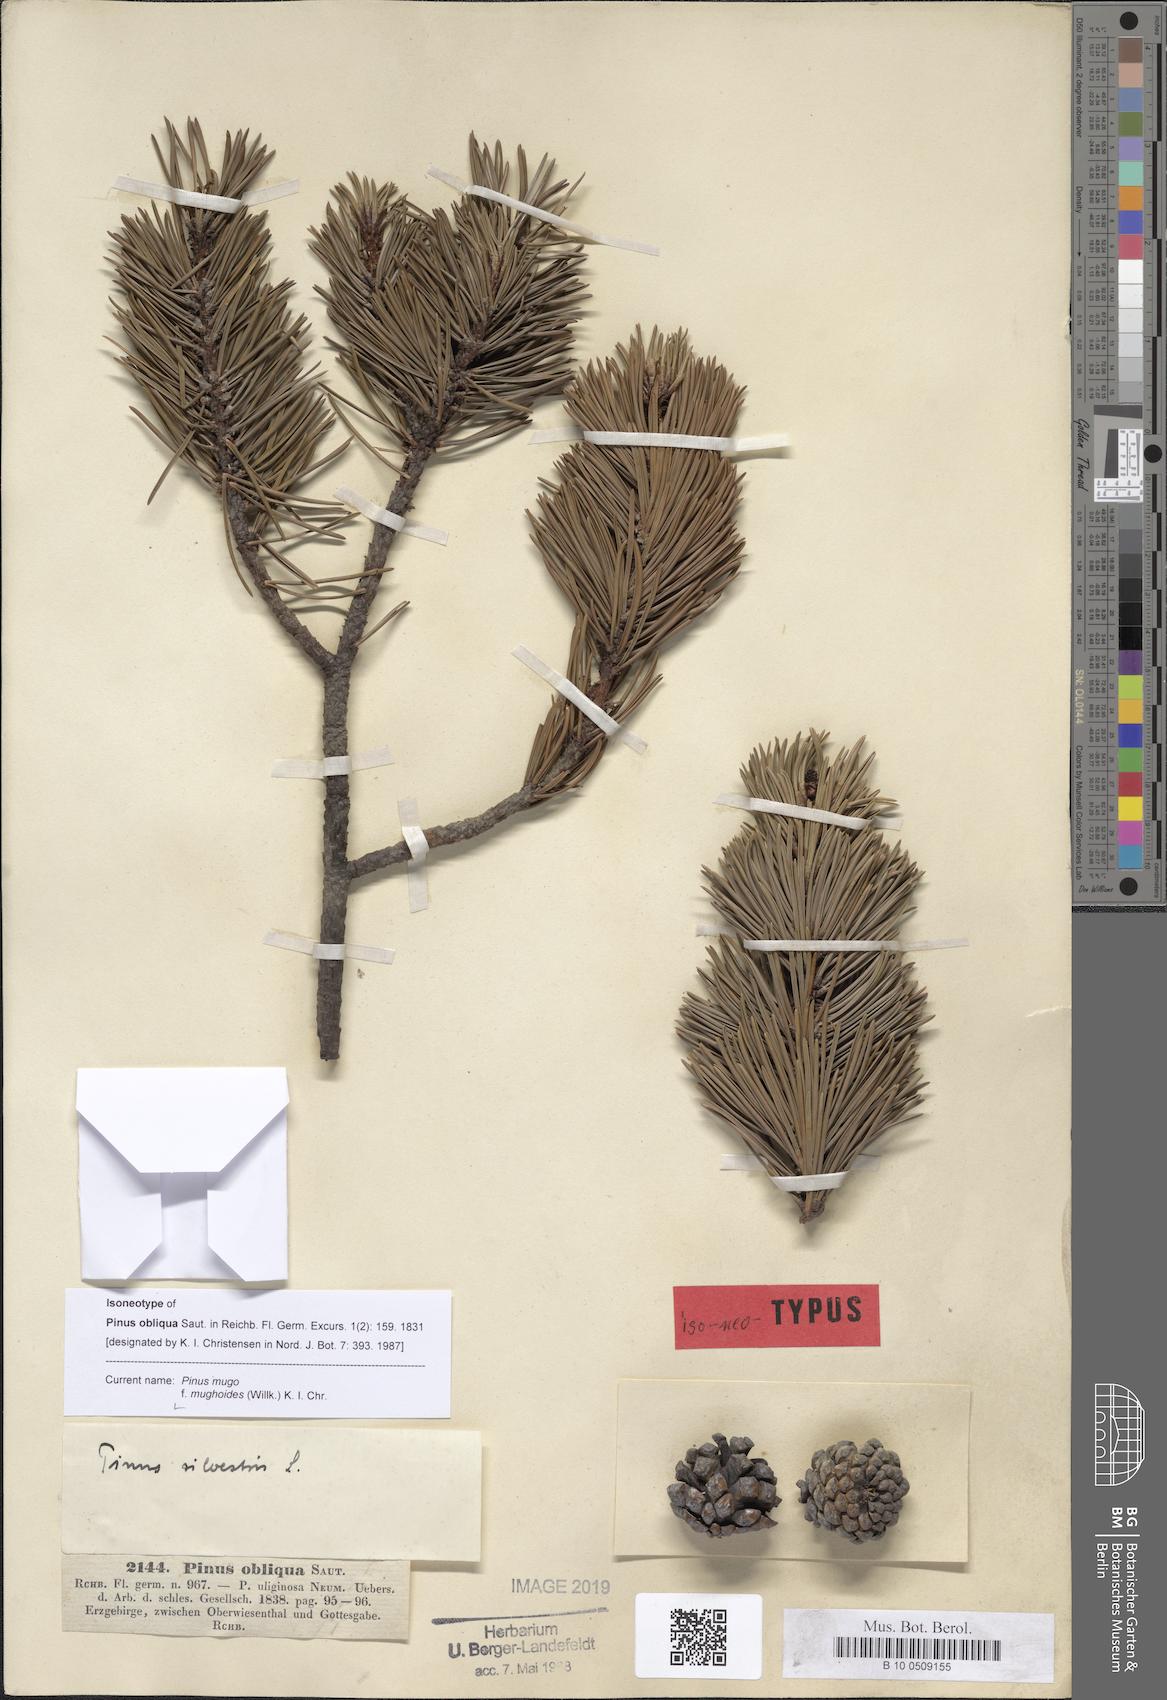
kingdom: Plantae
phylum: Tracheophyta
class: Pinopsida
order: Pinales
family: Pinaceae
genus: Pinus
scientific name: Pinus mugo
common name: Mugo pine
